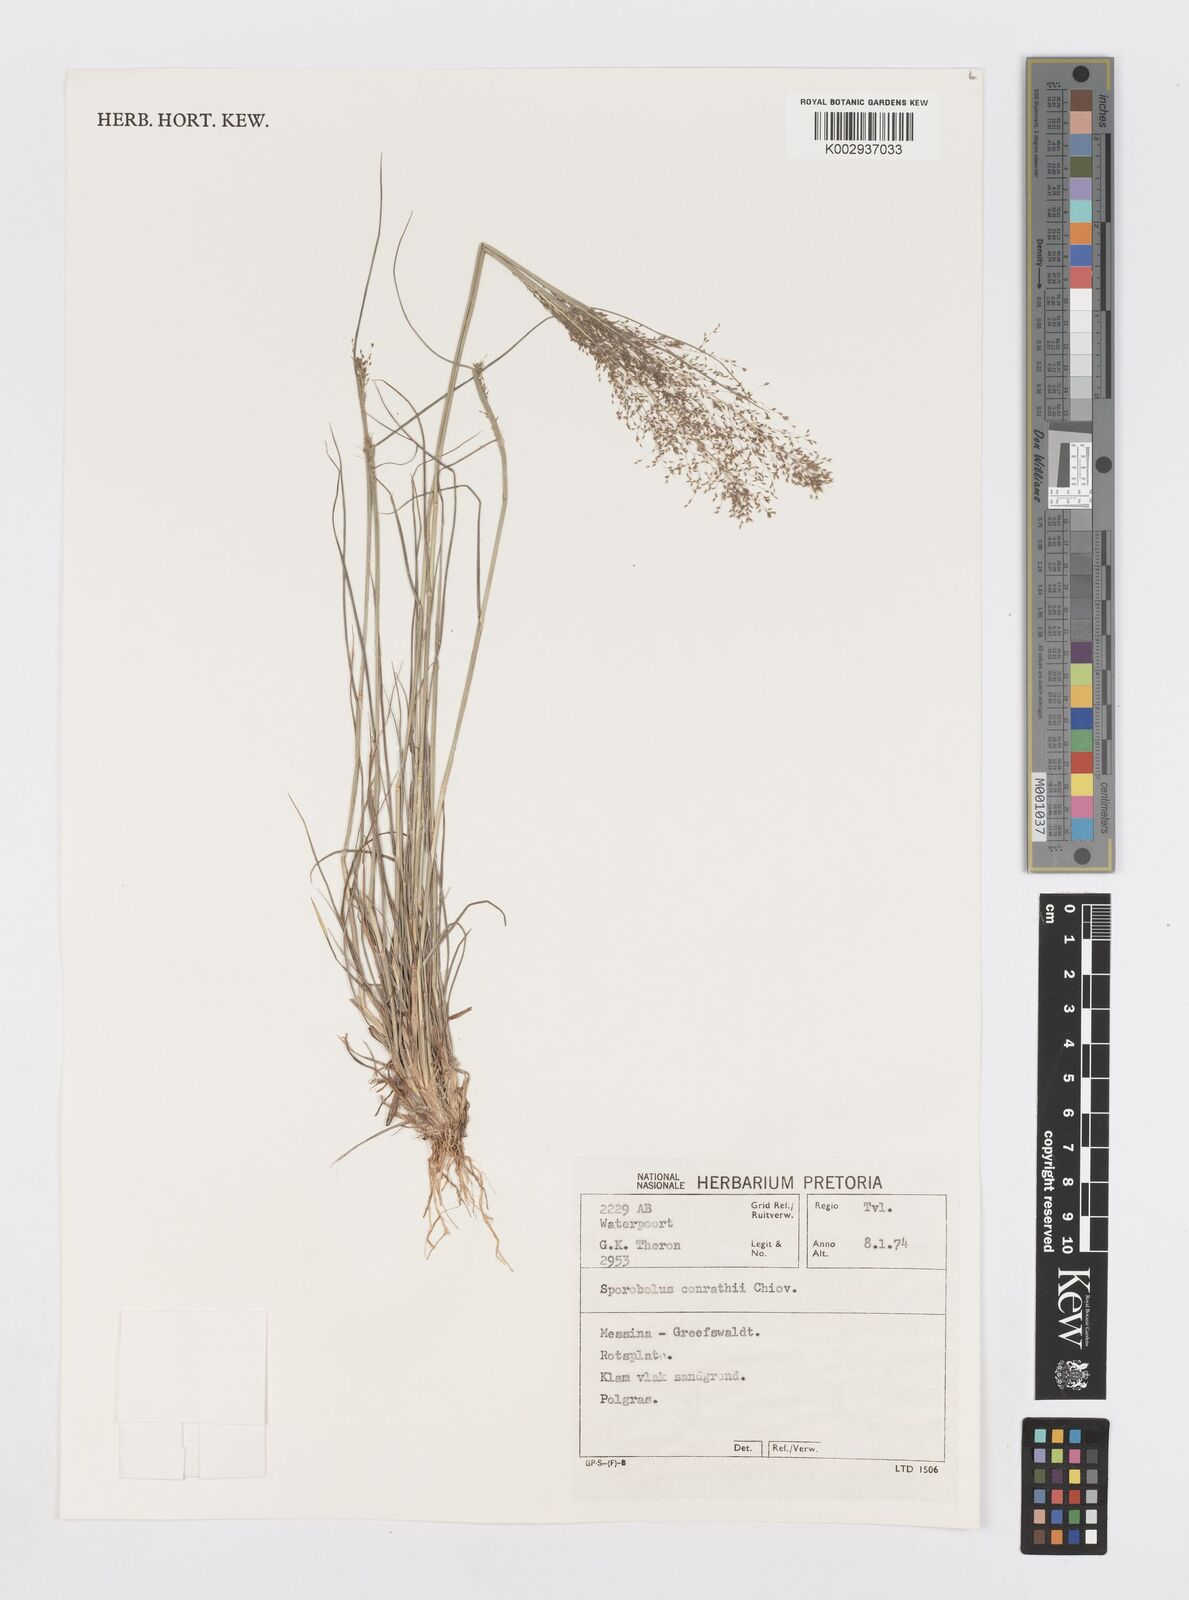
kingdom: Plantae
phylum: Tracheophyta
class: Liliopsida
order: Poales
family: Poaceae
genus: Sporobolus
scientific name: Sporobolus welwitschii
